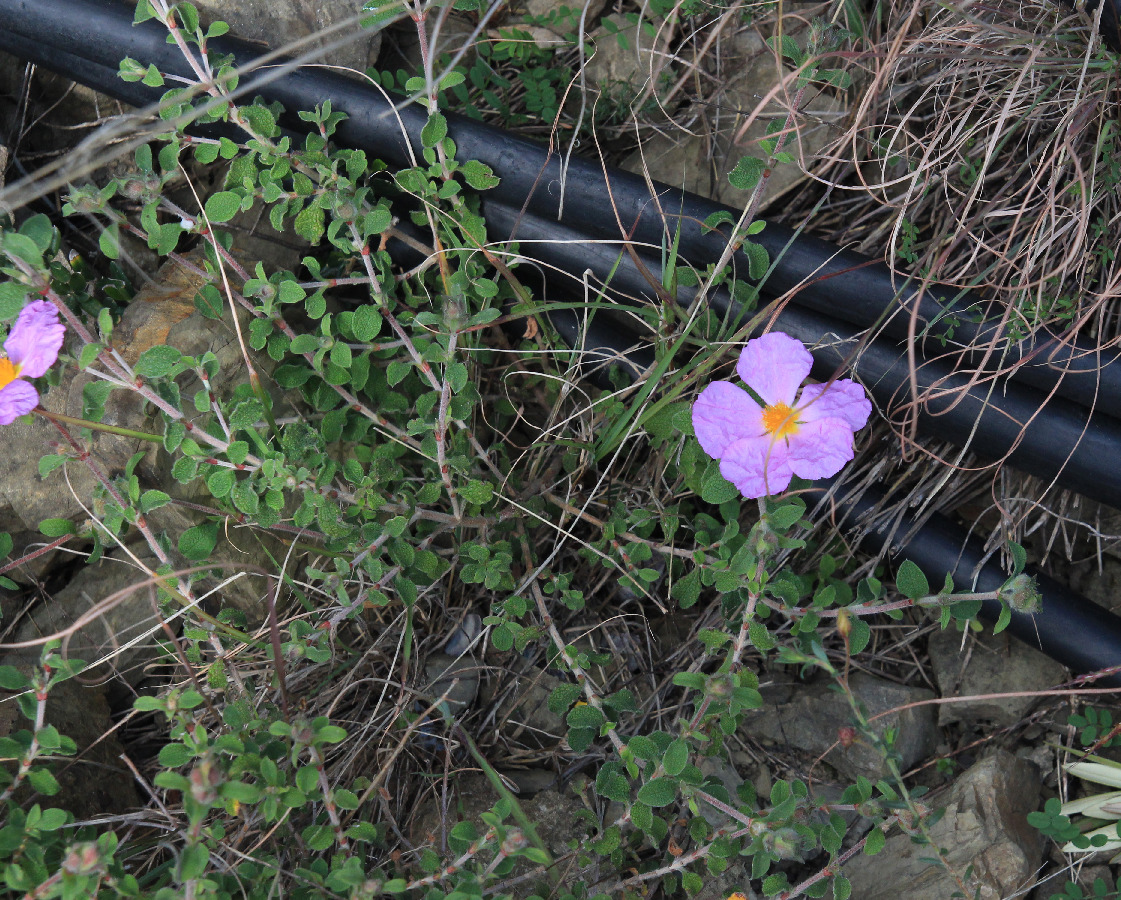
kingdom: Plantae
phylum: Tracheophyta
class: Magnoliopsida
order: Malvales
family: Cistaceae
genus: Cistus
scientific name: Cistus creticus
